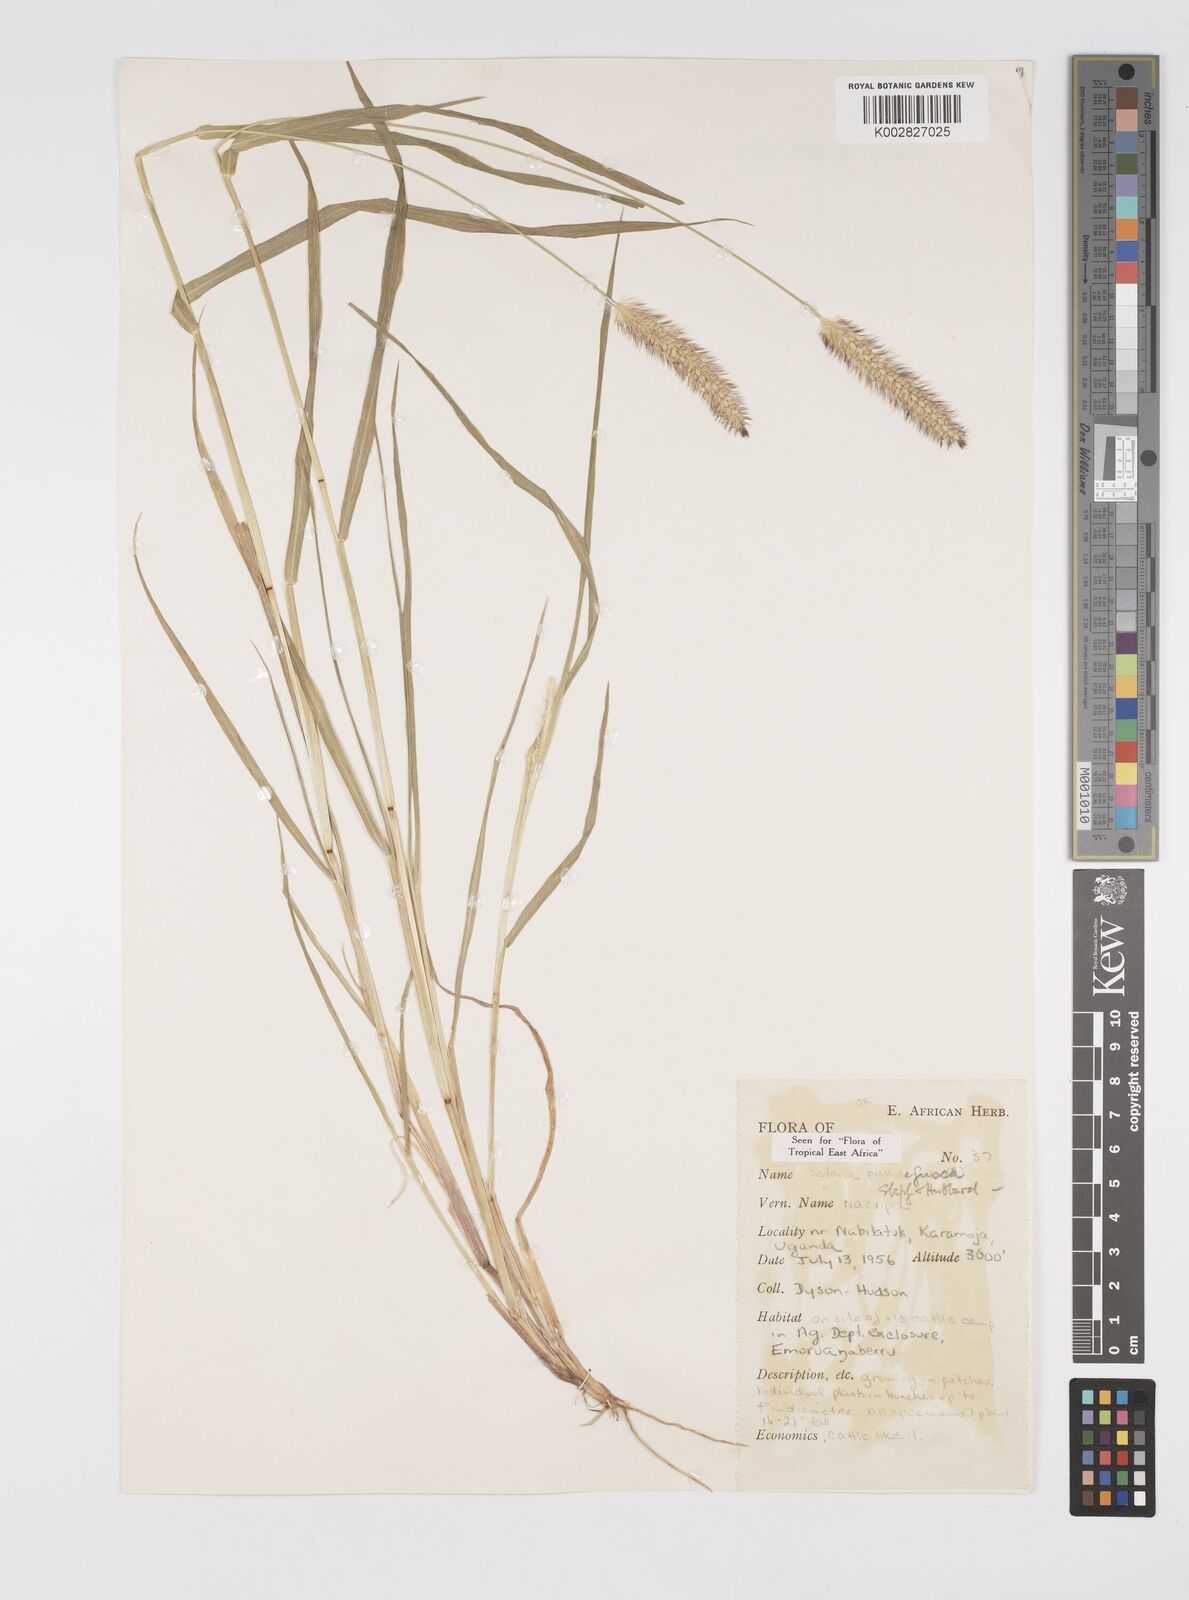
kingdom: Plantae
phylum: Tracheophyta
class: Liliopsida
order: Poales
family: Poaceae
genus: Setaria
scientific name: Setaria pumila
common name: Yellow bristle-grass
